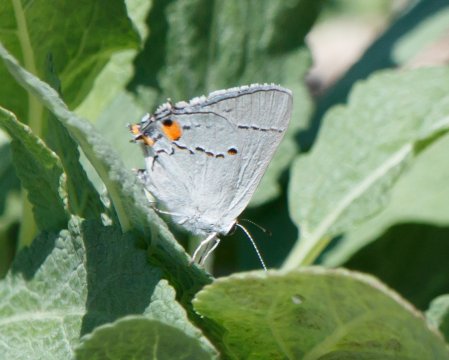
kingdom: Animalia
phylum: Arthropoda
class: Insecta
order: Lepidoptera
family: Lycaenidae
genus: Strymon
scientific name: Strymon melinus
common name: Gray Hairstreak
